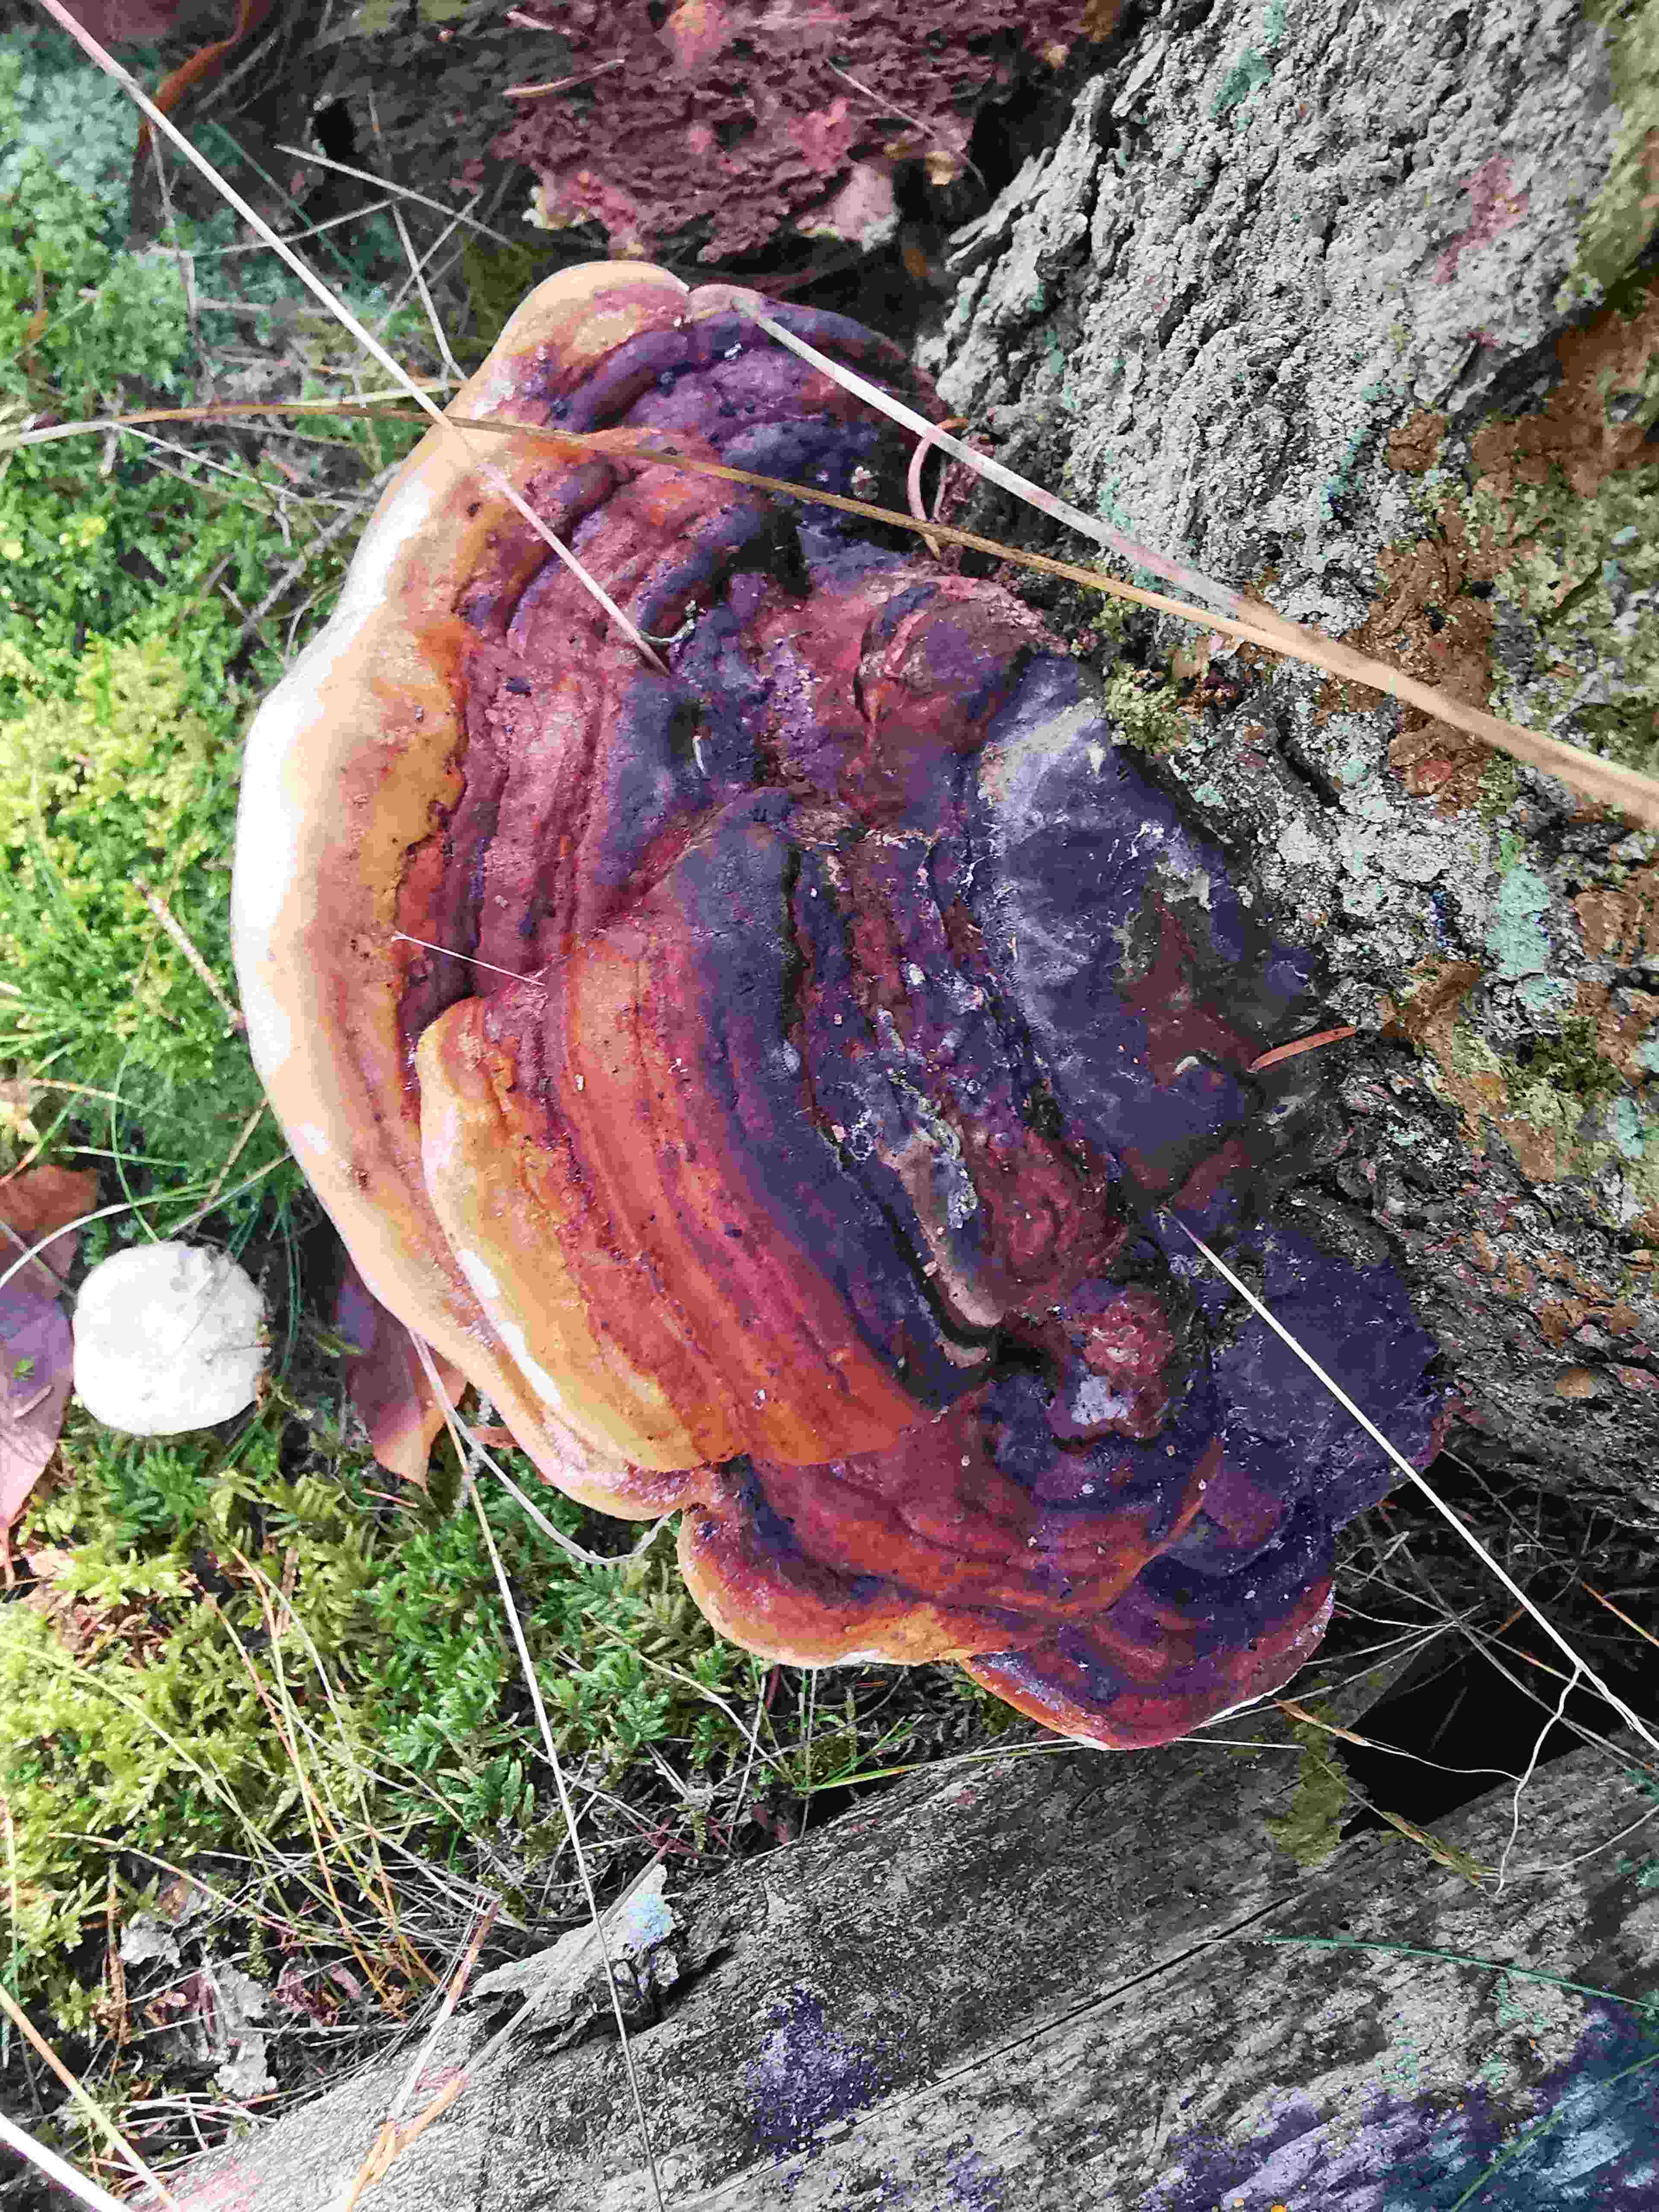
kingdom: Fungi
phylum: Basidiomycota
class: Agaricomycetes
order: Polyporales
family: Fomitopsidaceae
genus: Fomitopsis
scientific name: Fomitopsis pinicola
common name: randbæltet hovporesvamp
